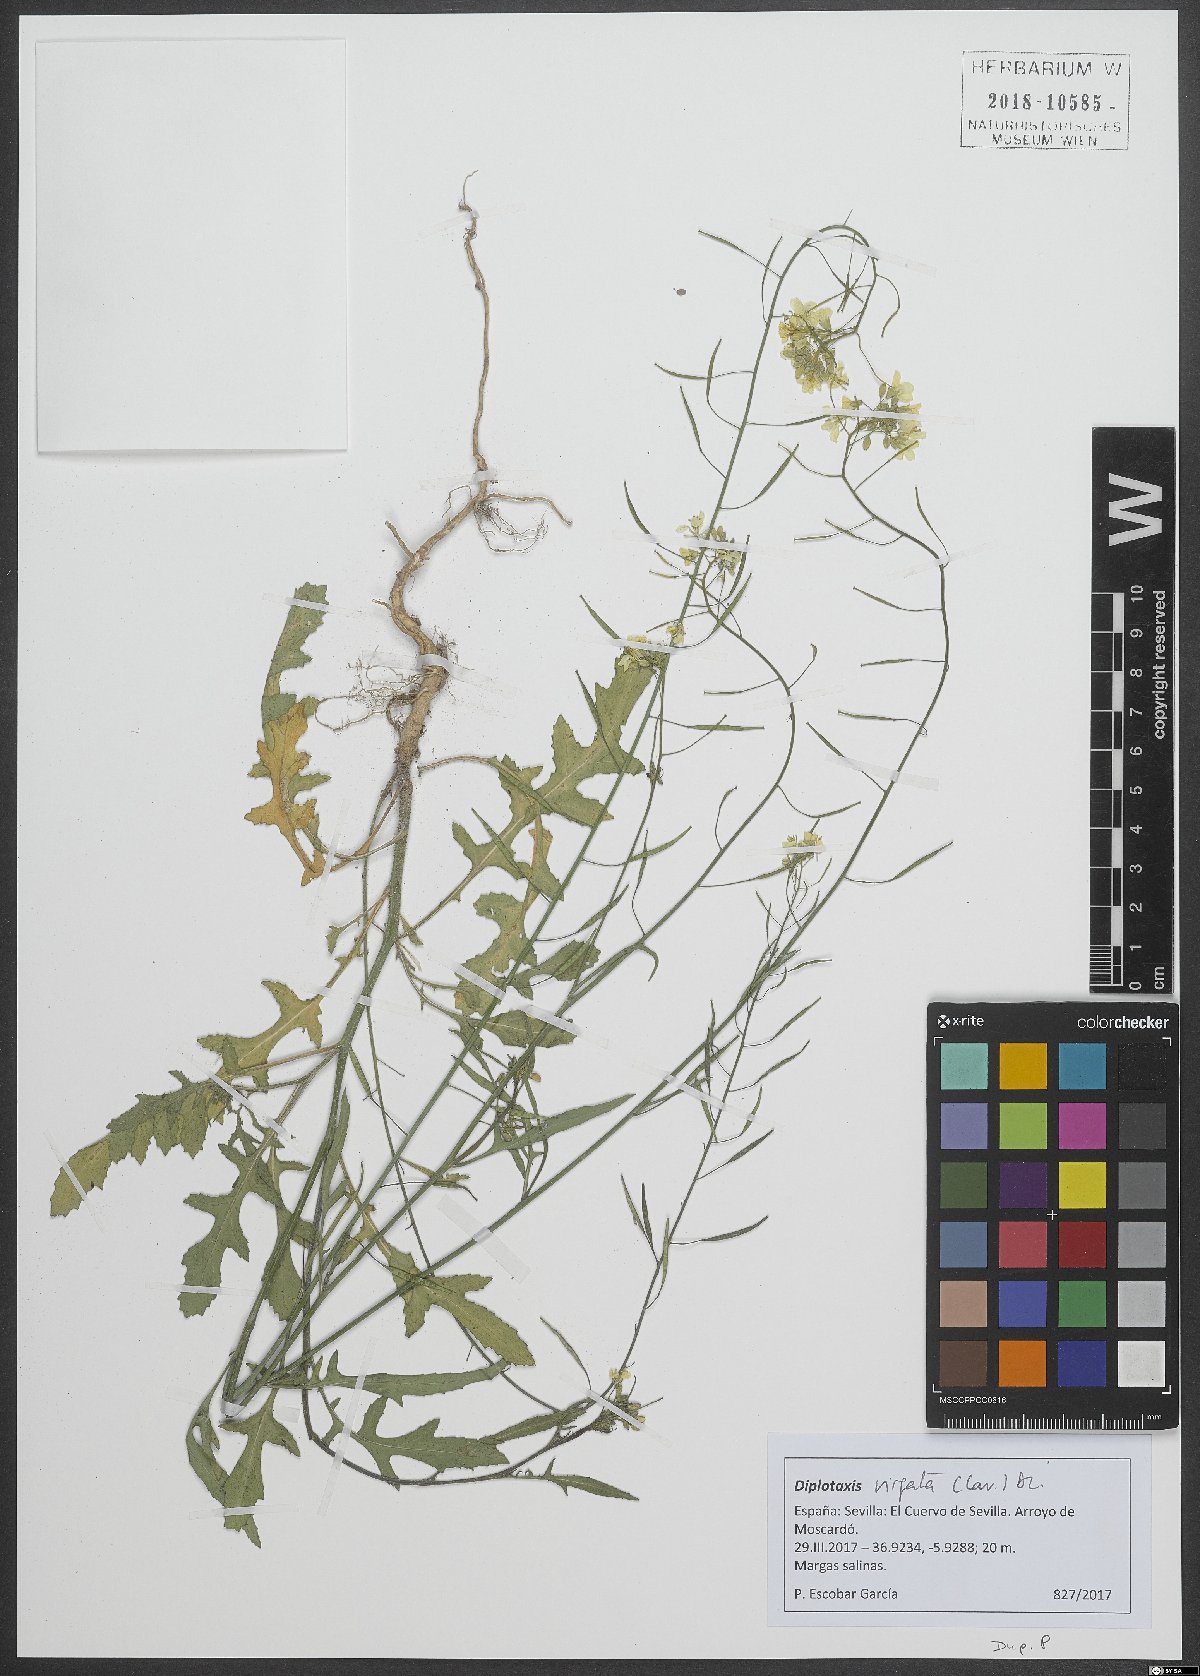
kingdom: Plantae
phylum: Tracheophyta
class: Magnoliopsida
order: Brassicales
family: Brassicaceae
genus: Diplotaxis
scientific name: Diplotaxis virgata
